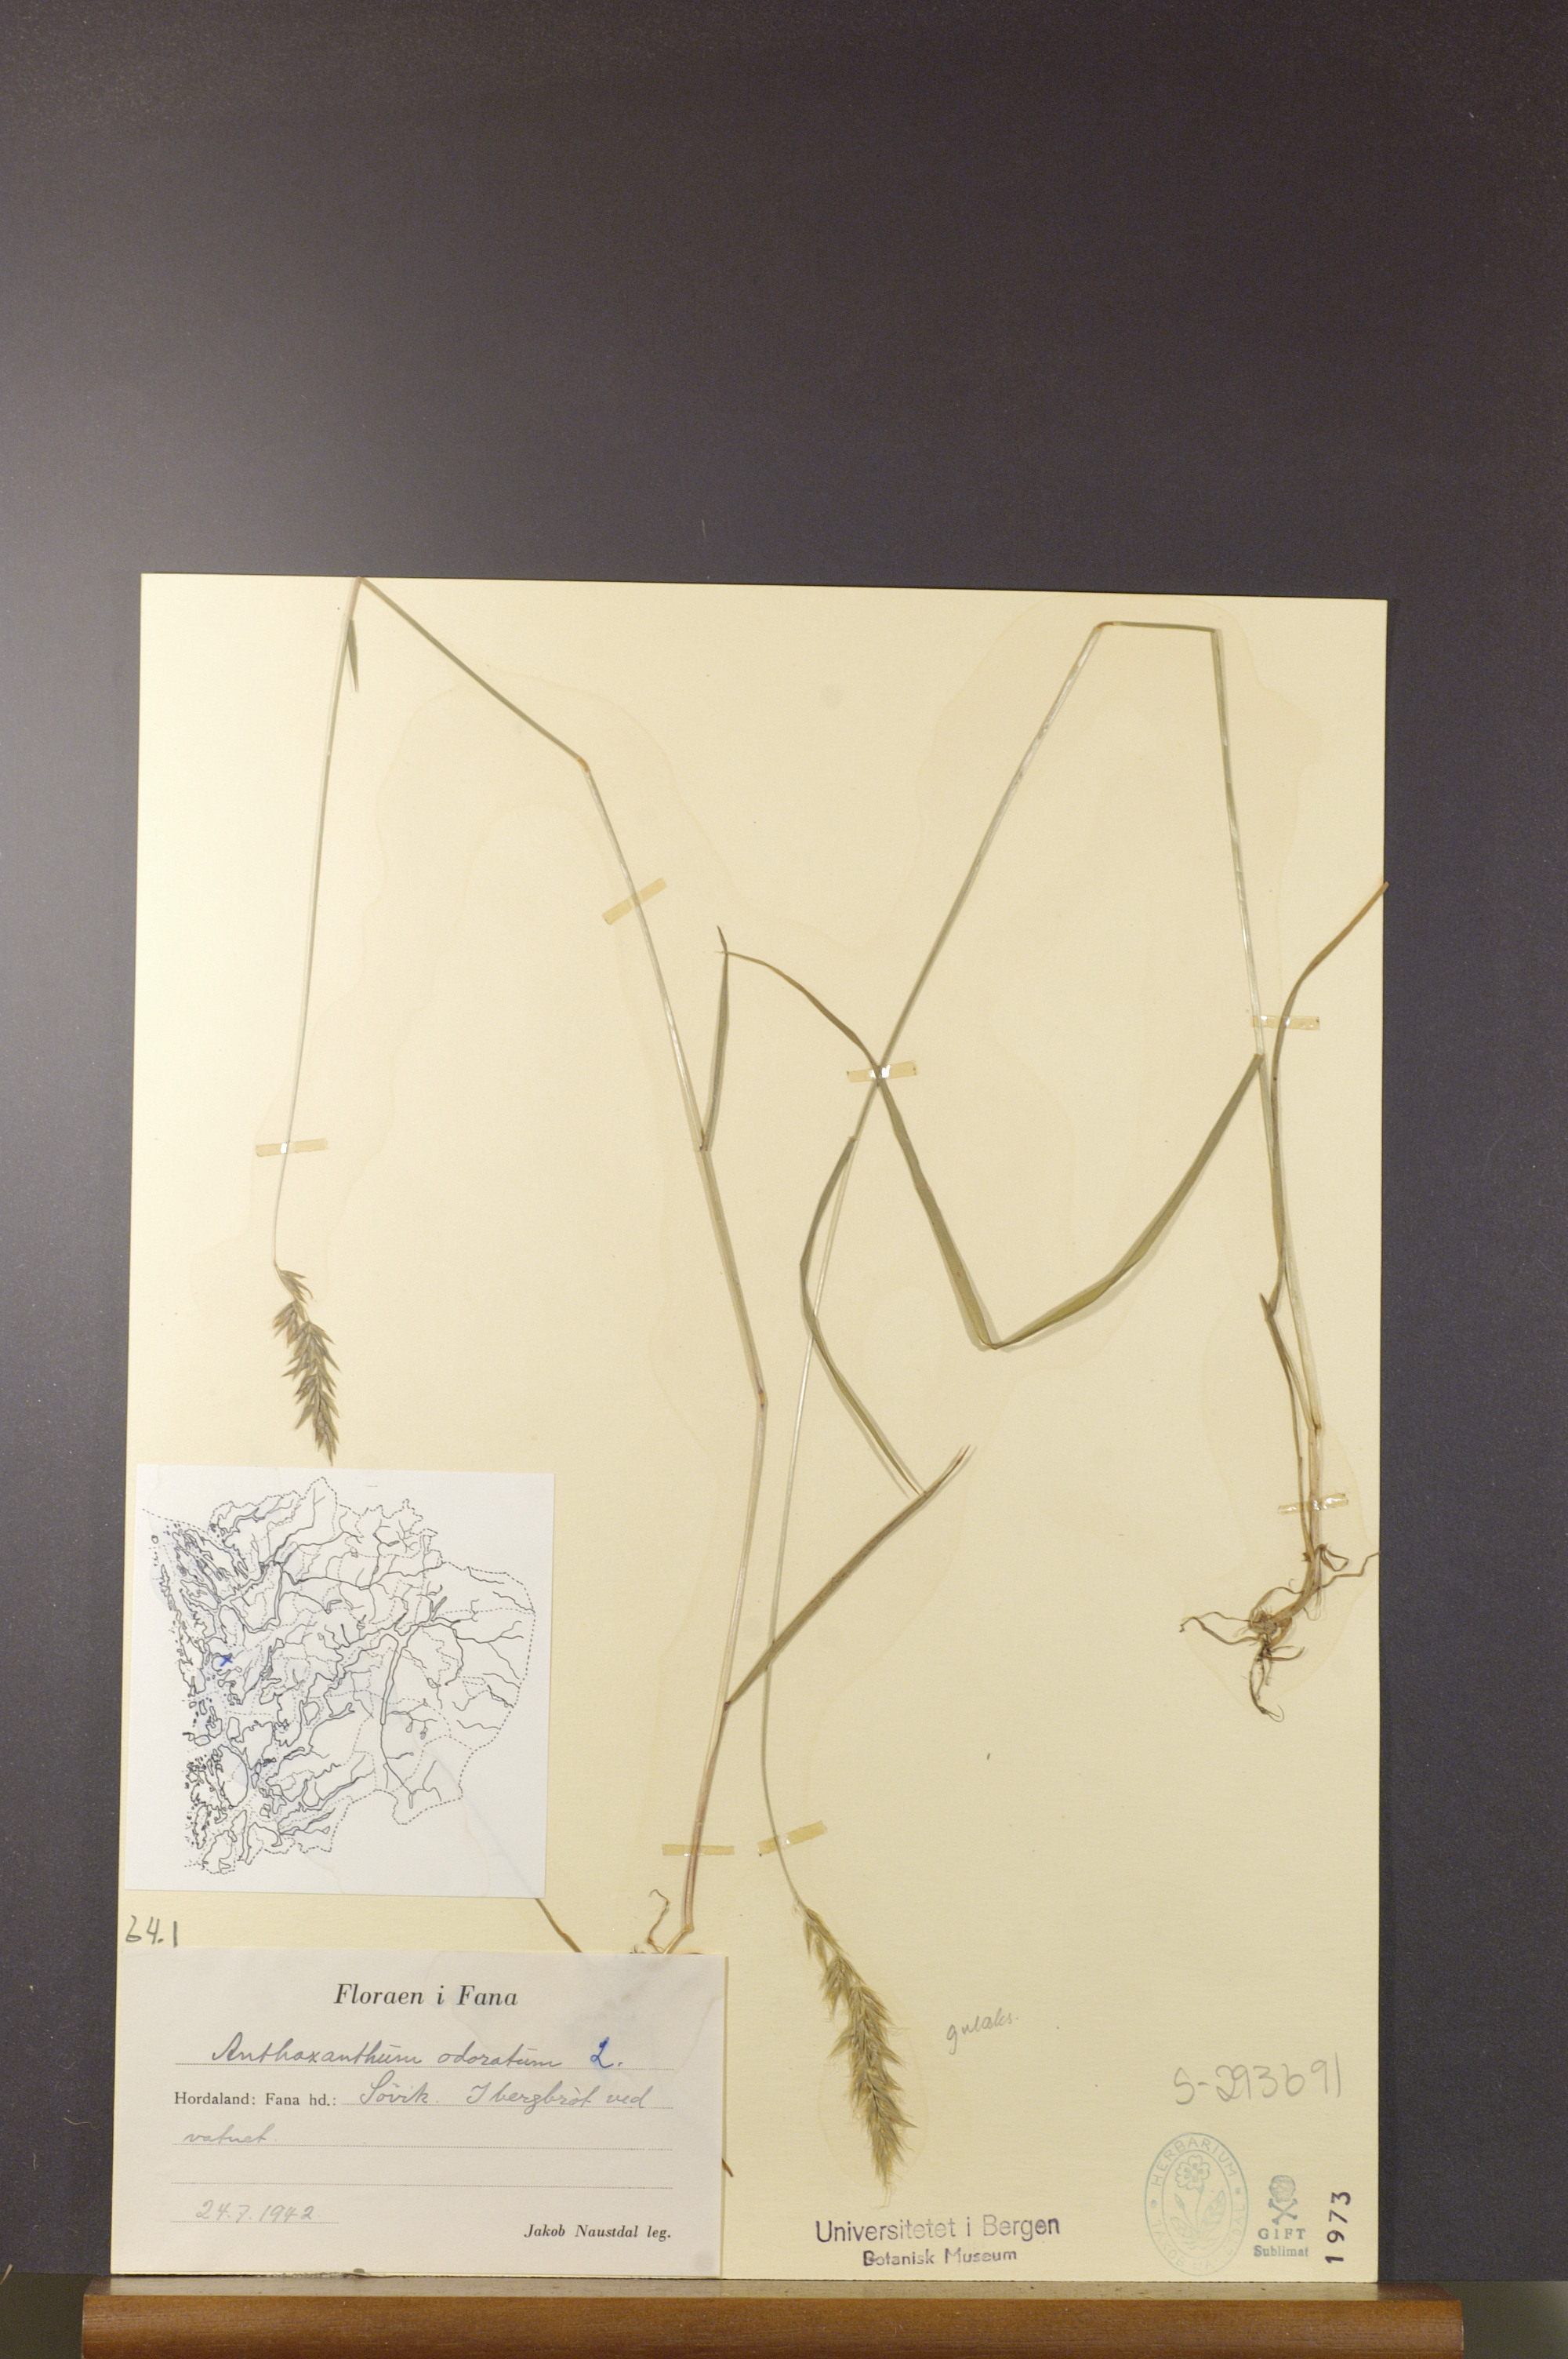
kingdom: Plantae
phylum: Tracheophyta
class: Liliopsida
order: Poales
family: Poaceae
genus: Anthoxanthum
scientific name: Anthoxanthum odoratum
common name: Sweet vernalgrass
